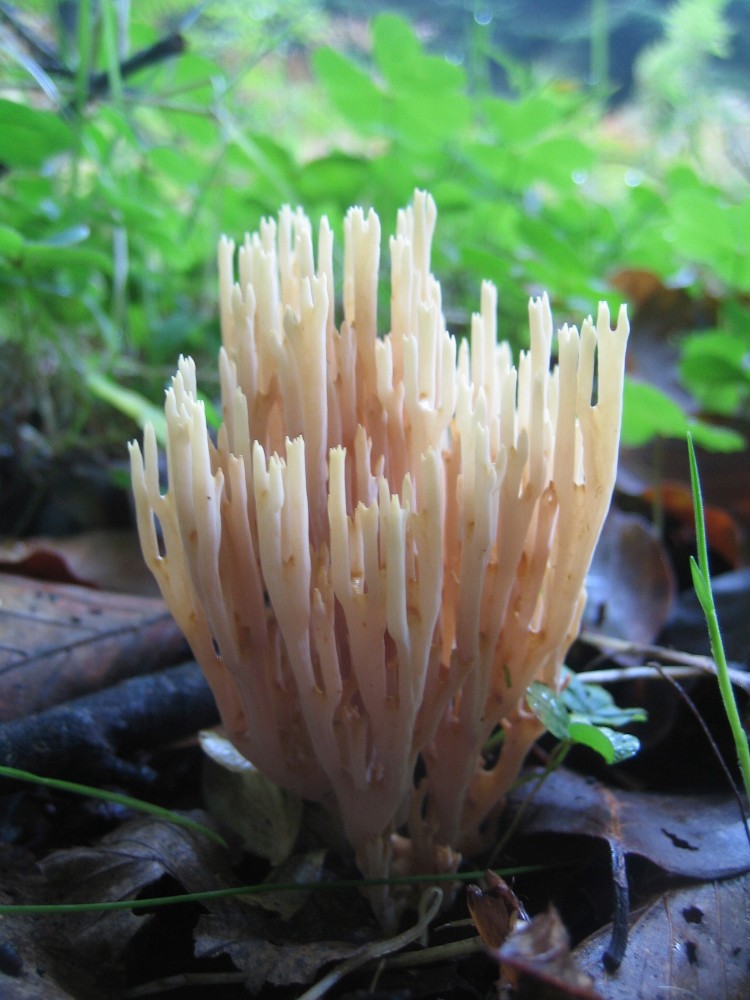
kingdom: Fungi
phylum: Basidiomycota
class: Agaricomycetes
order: Gomphales
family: Gomphaceae
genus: Ramaria
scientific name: Ramaria stricta
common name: rank koralsvamp
